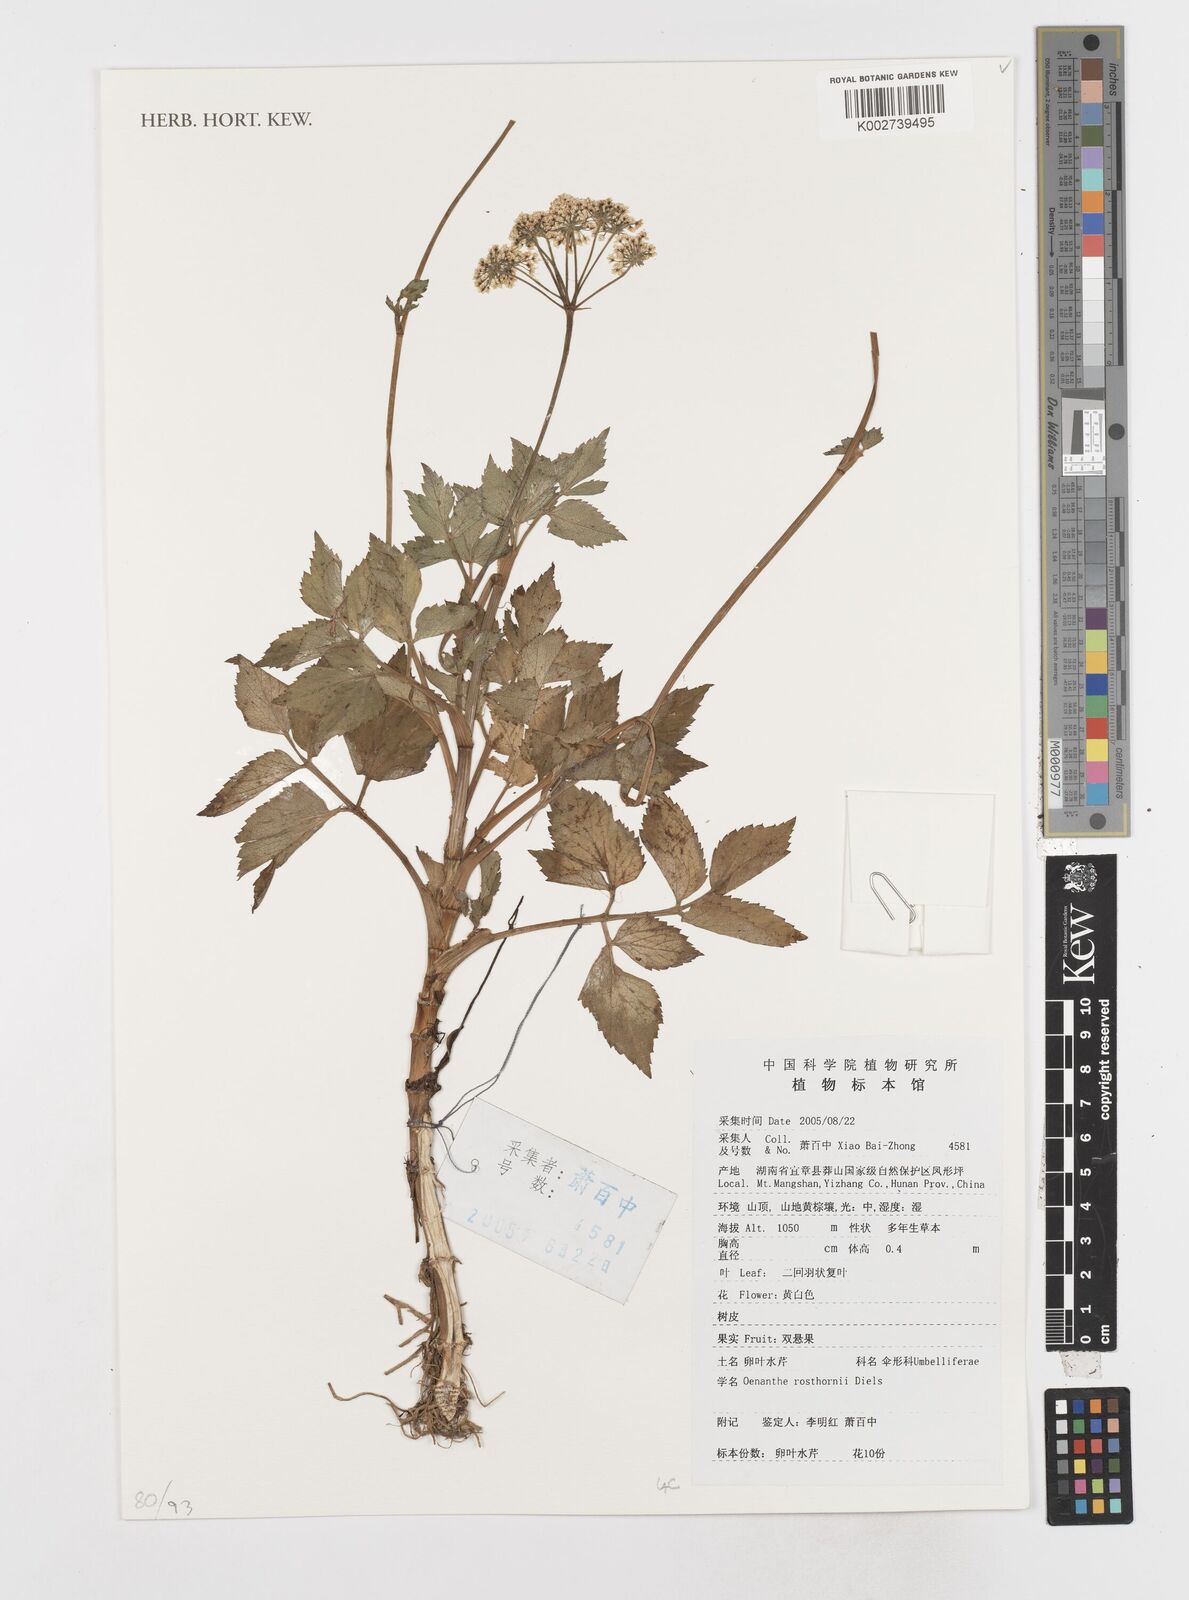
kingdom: Plantae
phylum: Tracheophyta
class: Magnoliopsida
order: Apiales
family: Apiaceae
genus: Oenanthe
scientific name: Oenanthe javanica
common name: Java water-dropwort
